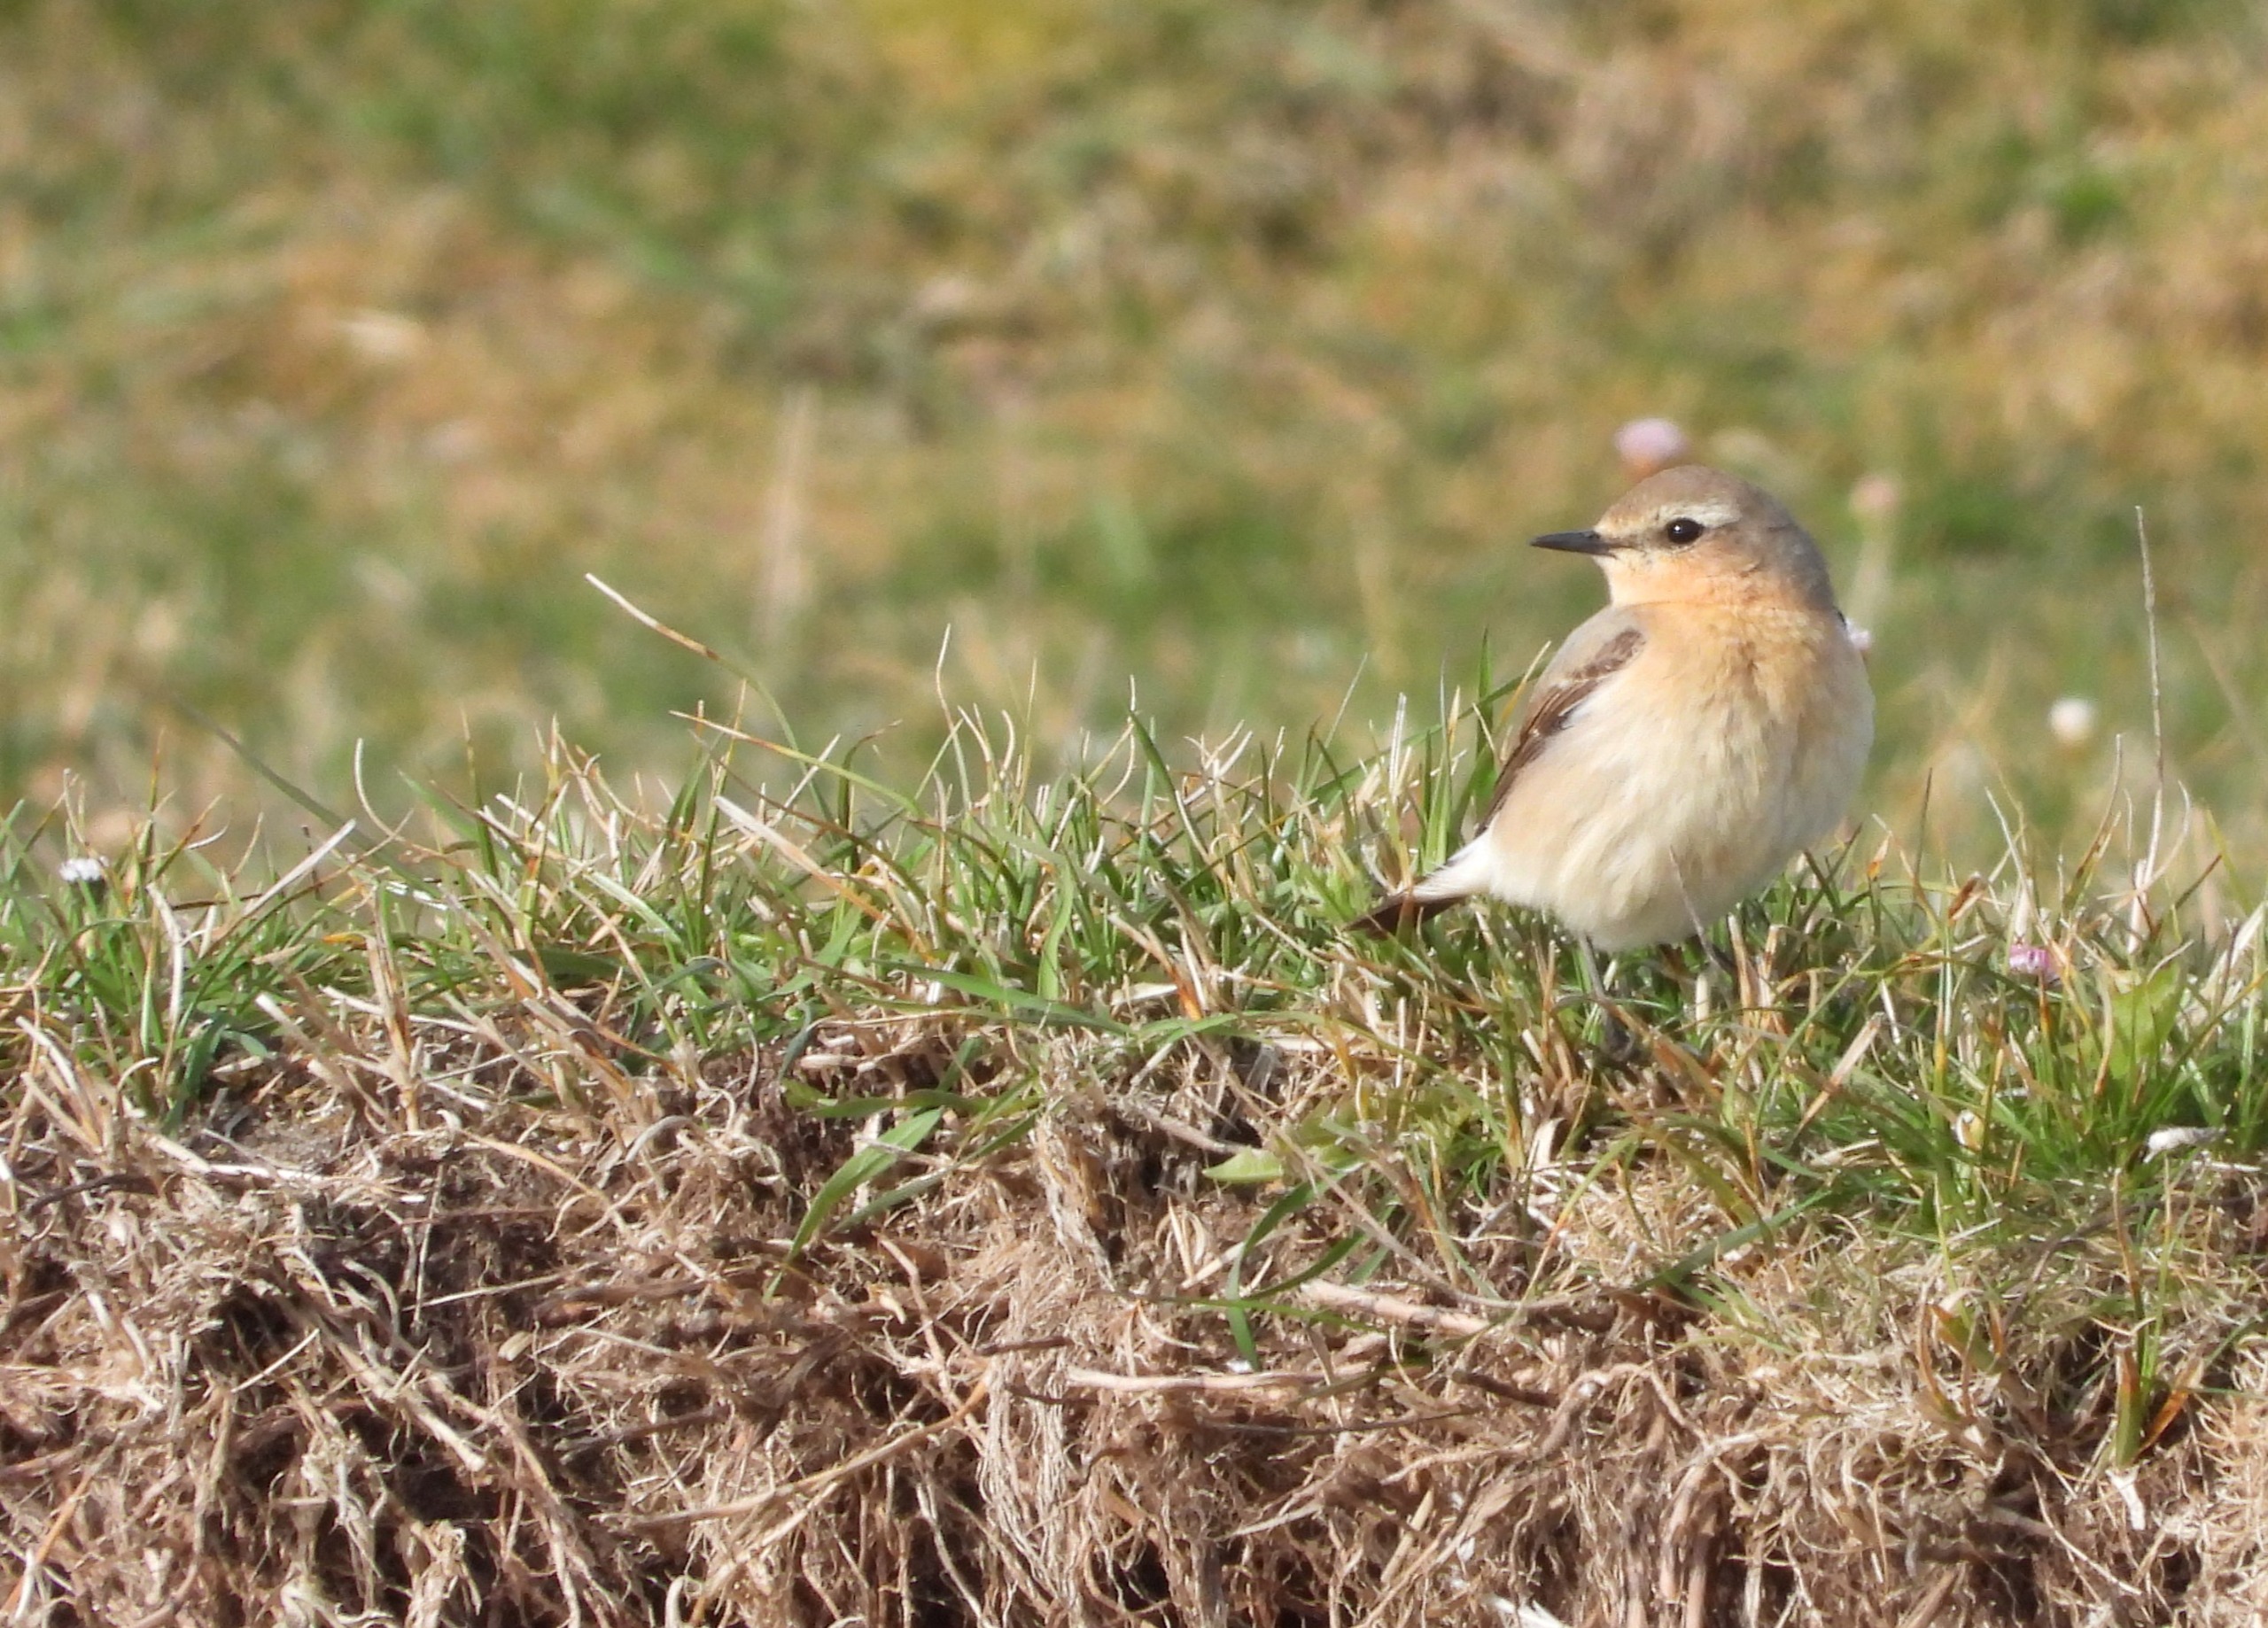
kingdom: Animalia
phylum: Chordata
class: Aves
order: Passeriformes
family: Muscicapidae
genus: Oenanthe
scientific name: Oenanthe oenanthe
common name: Stenpikker
